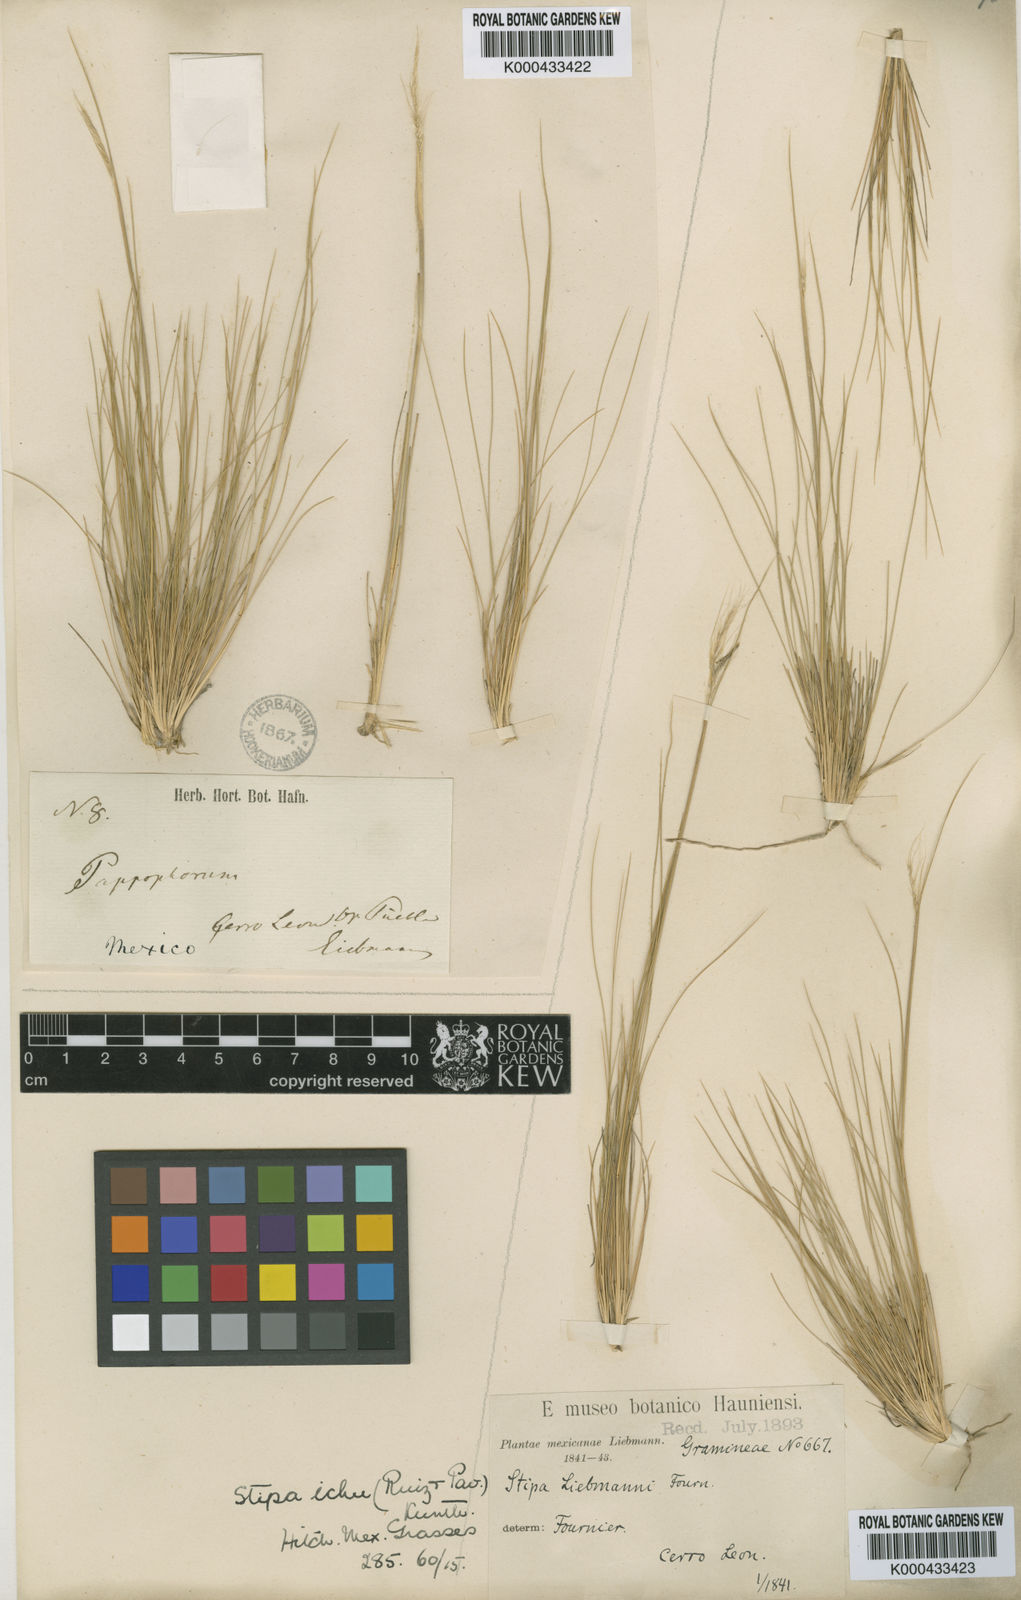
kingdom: Plantae
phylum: Tracheophyta
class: Liliopsida
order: Poales
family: Poaceae
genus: Jarava
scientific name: Jarava ichu
